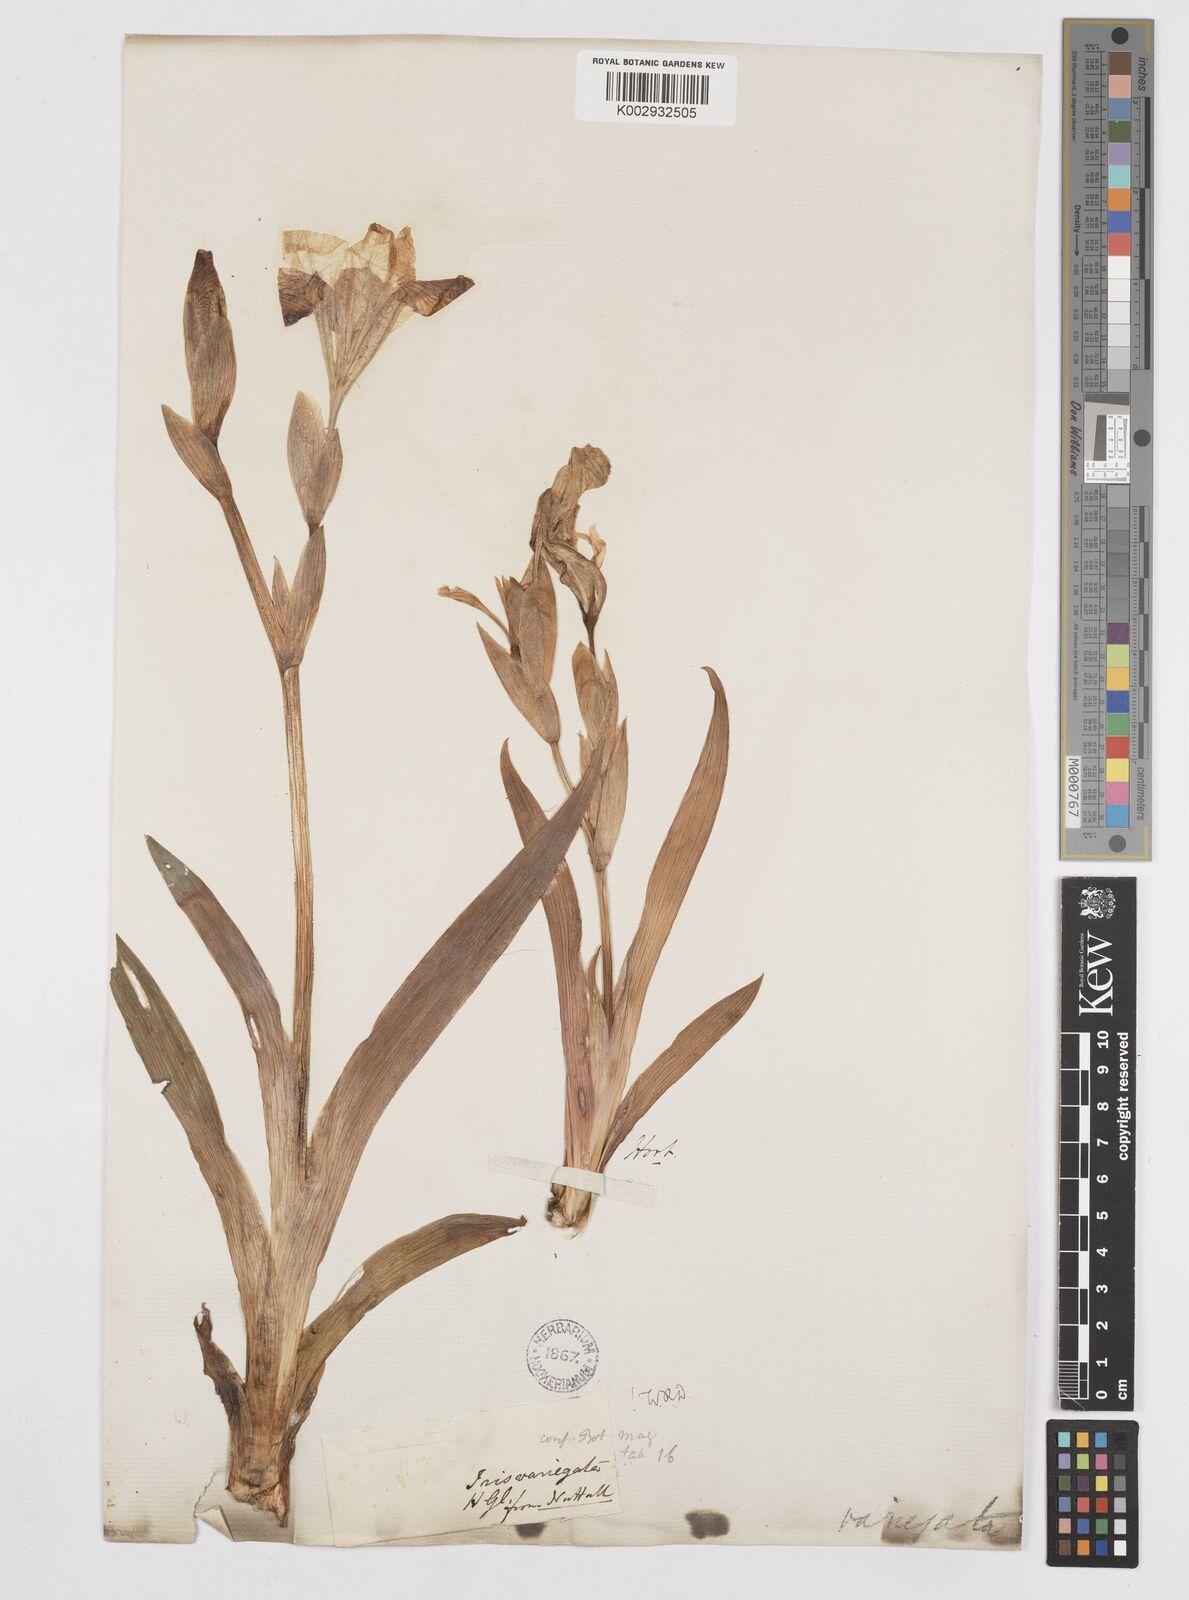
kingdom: Plantae
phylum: Tracheophyta
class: Liliopsida
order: Asparagales
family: Iridaceae
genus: Iris
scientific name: Iris variegata
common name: Hungarian iris
